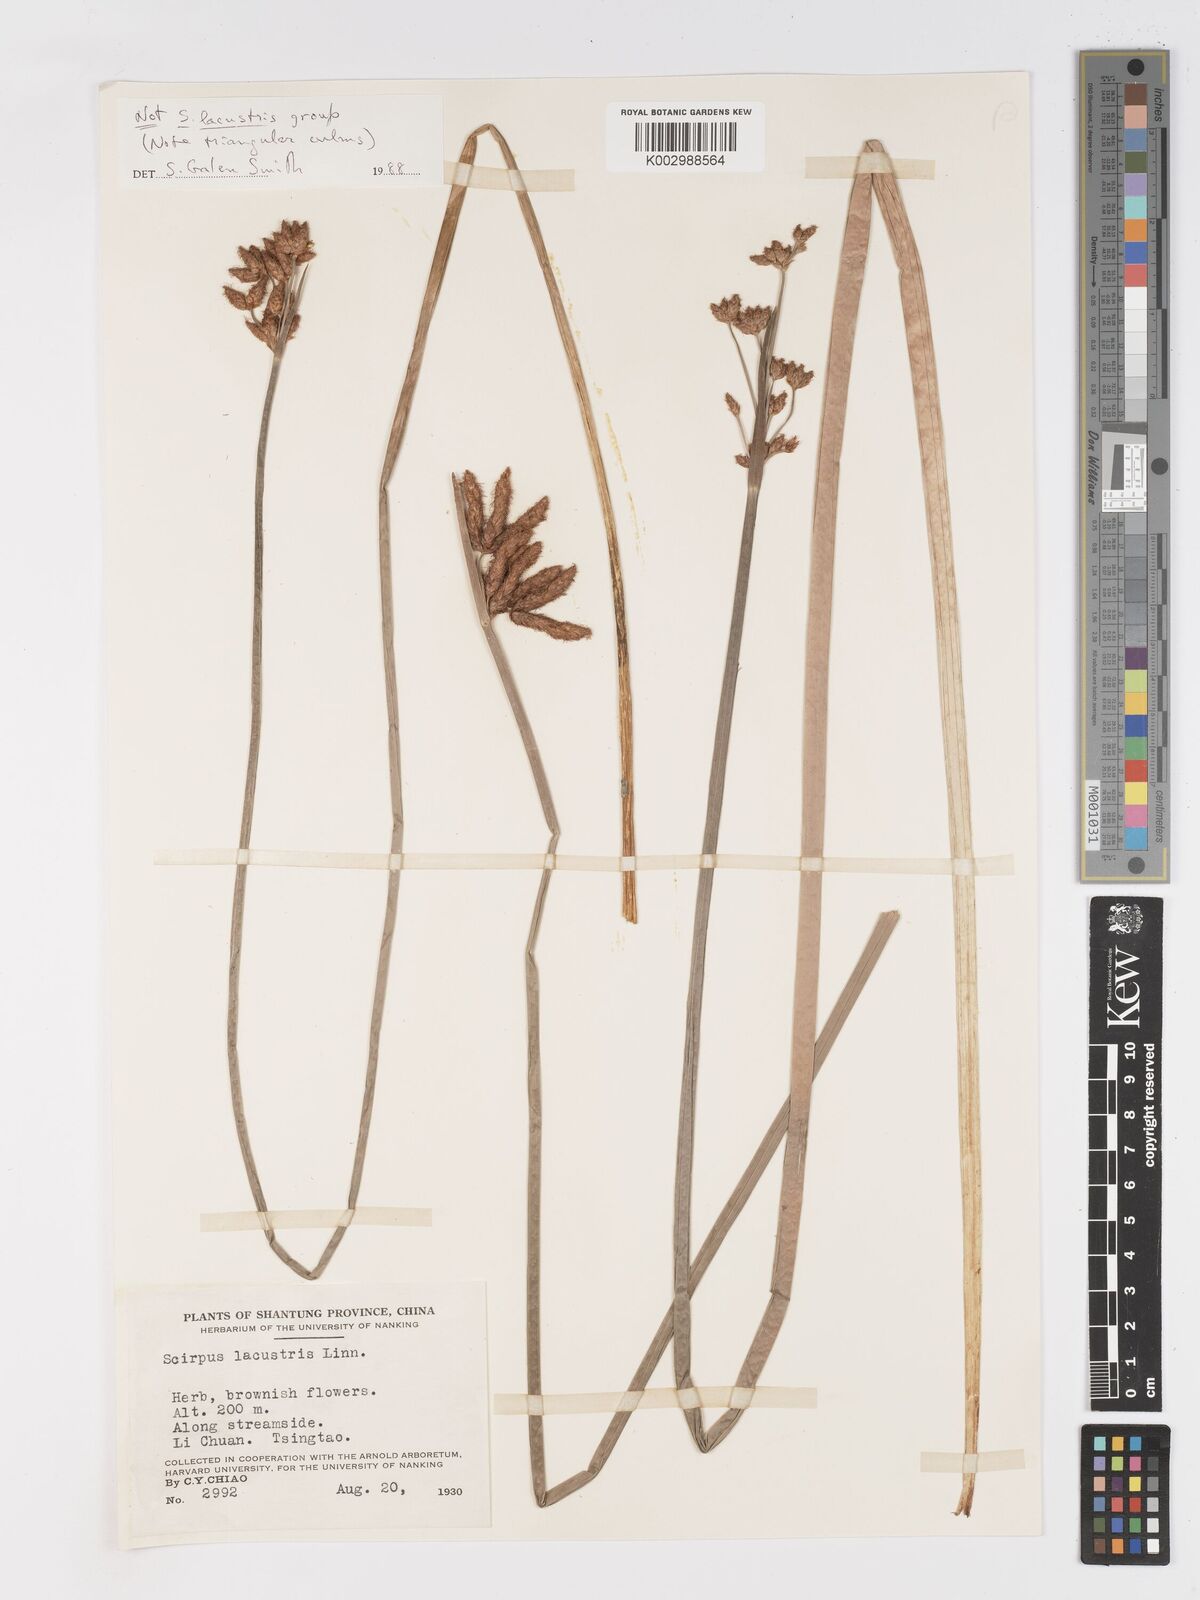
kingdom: Plantae
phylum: Tracheophyta
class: Liliopsida
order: Poales
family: Cyperaceae
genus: Schoenoplectus
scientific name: Schoenoplectus
